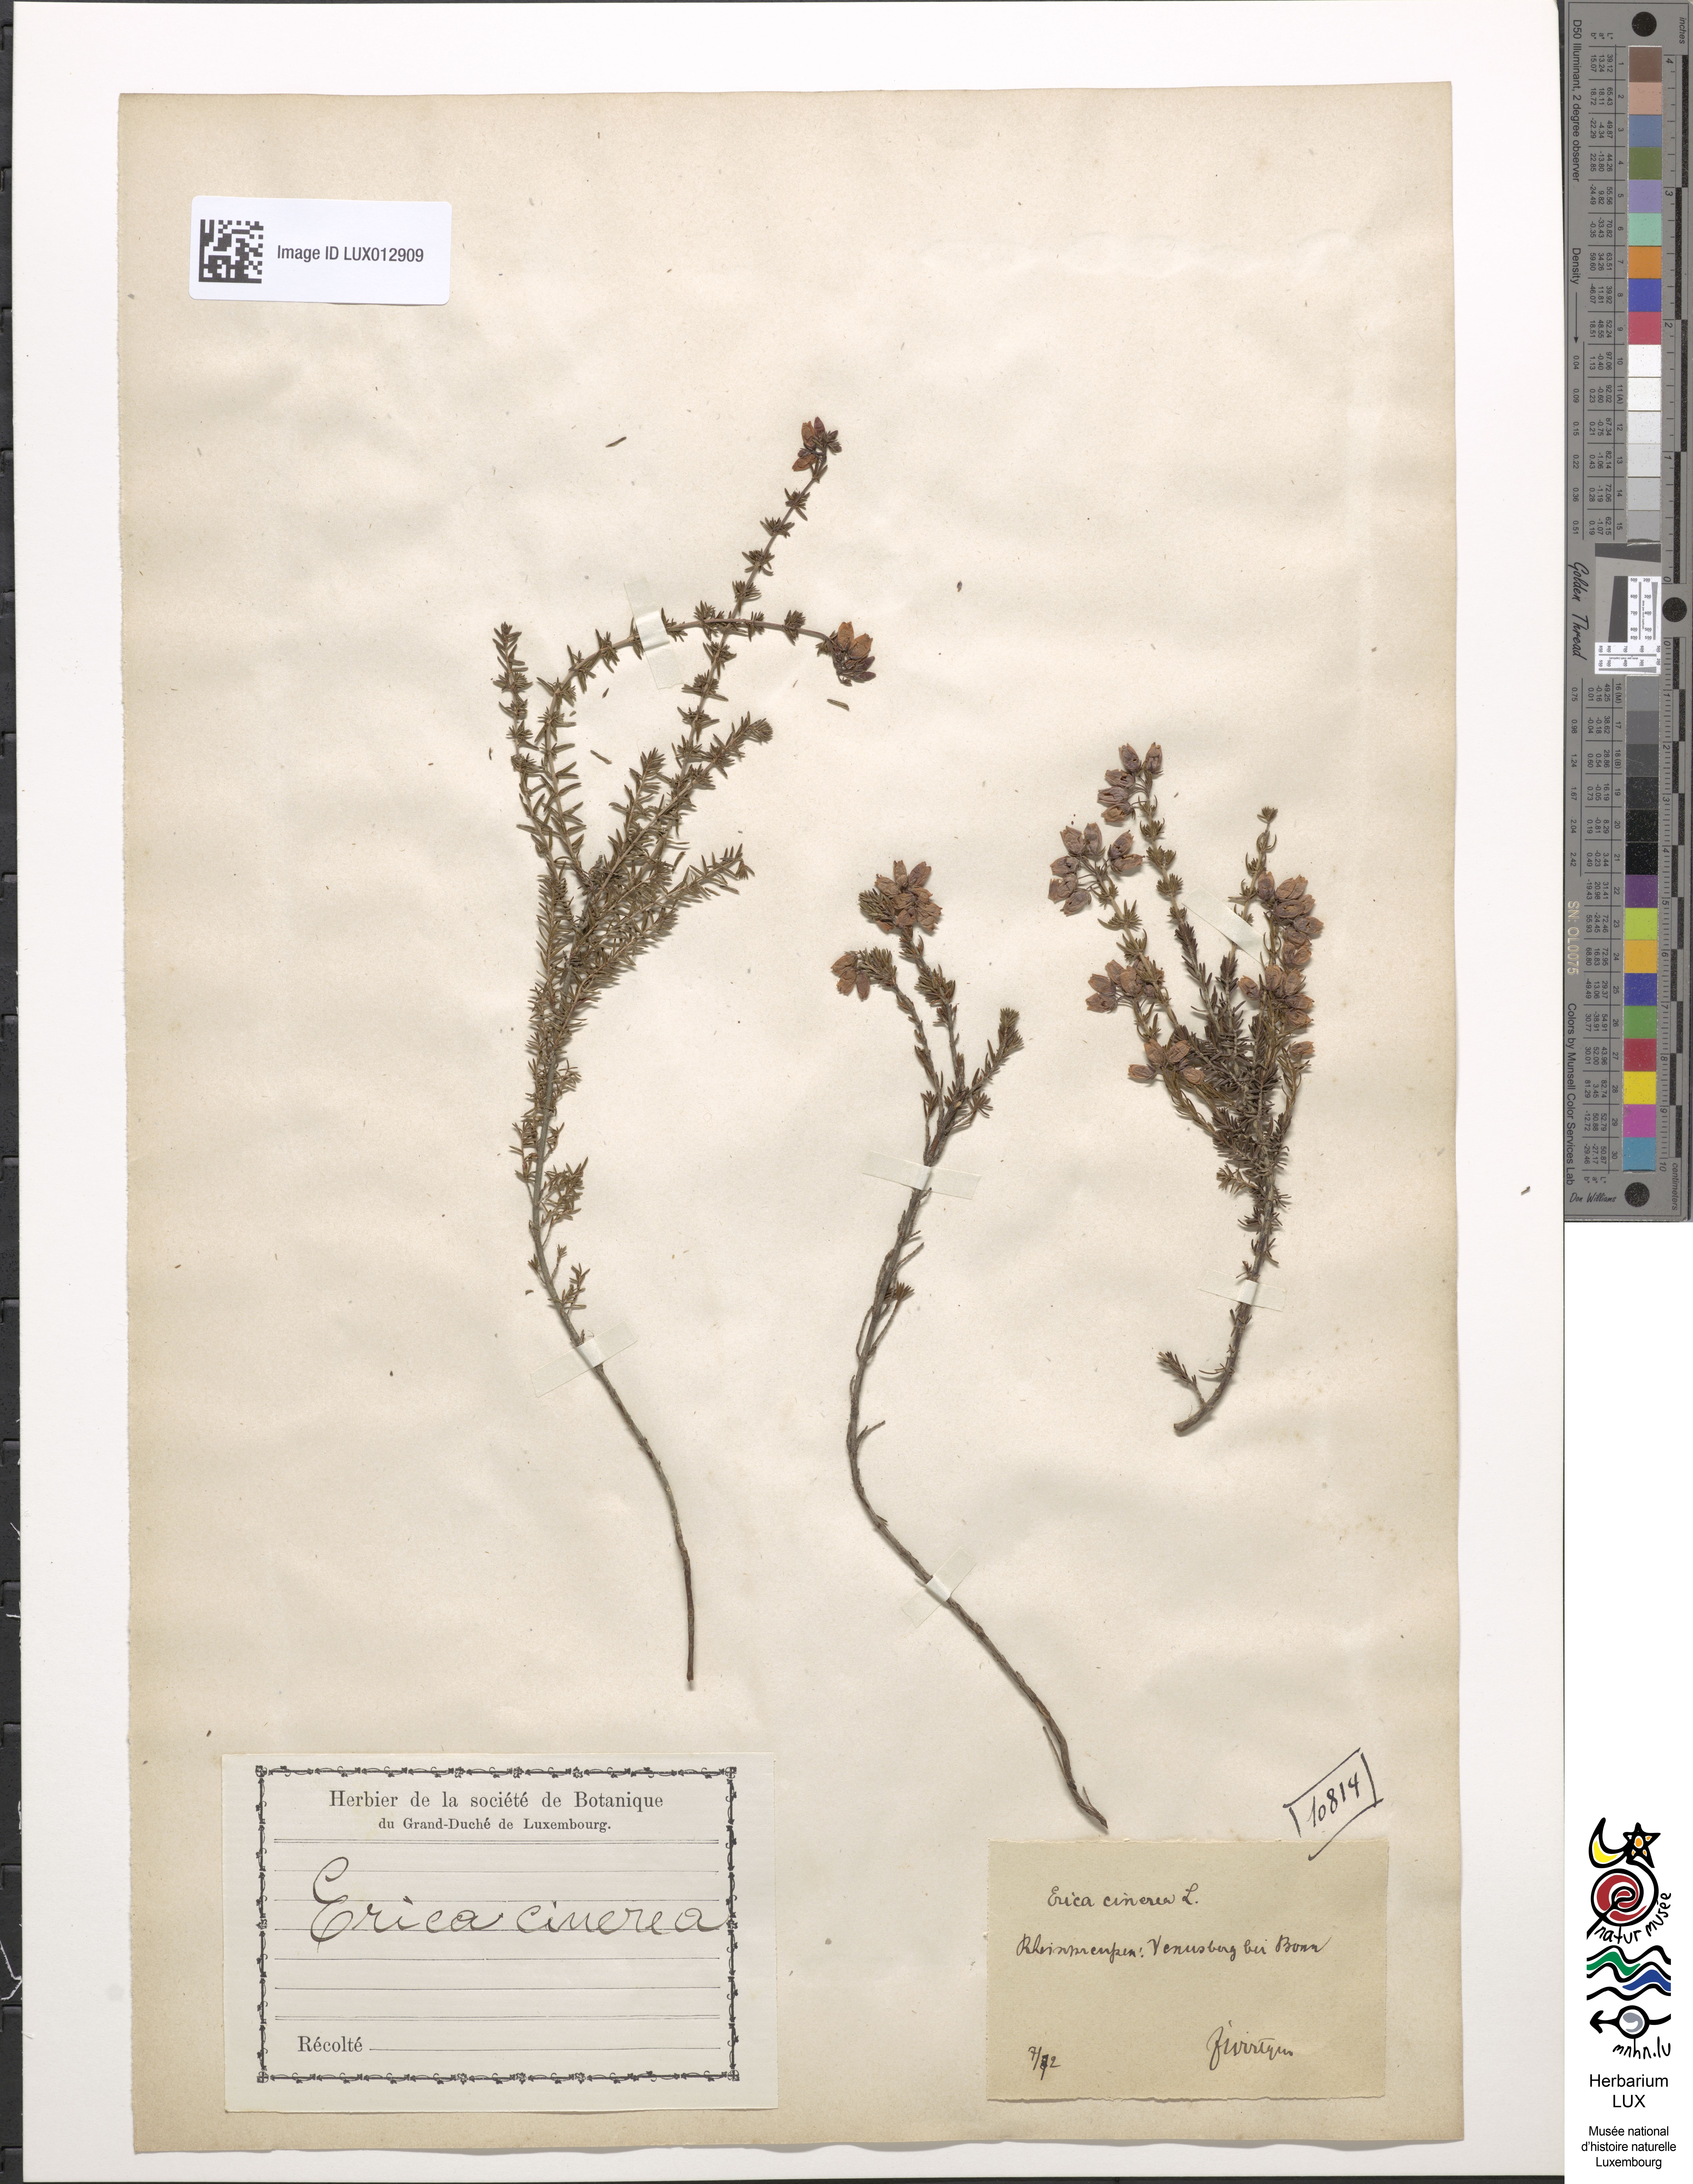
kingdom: Plantae
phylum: Tracheophyta
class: Magnoliopsida
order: Ericales
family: Ericaceae
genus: Erica
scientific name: Erica cinerea
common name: Bell heather
